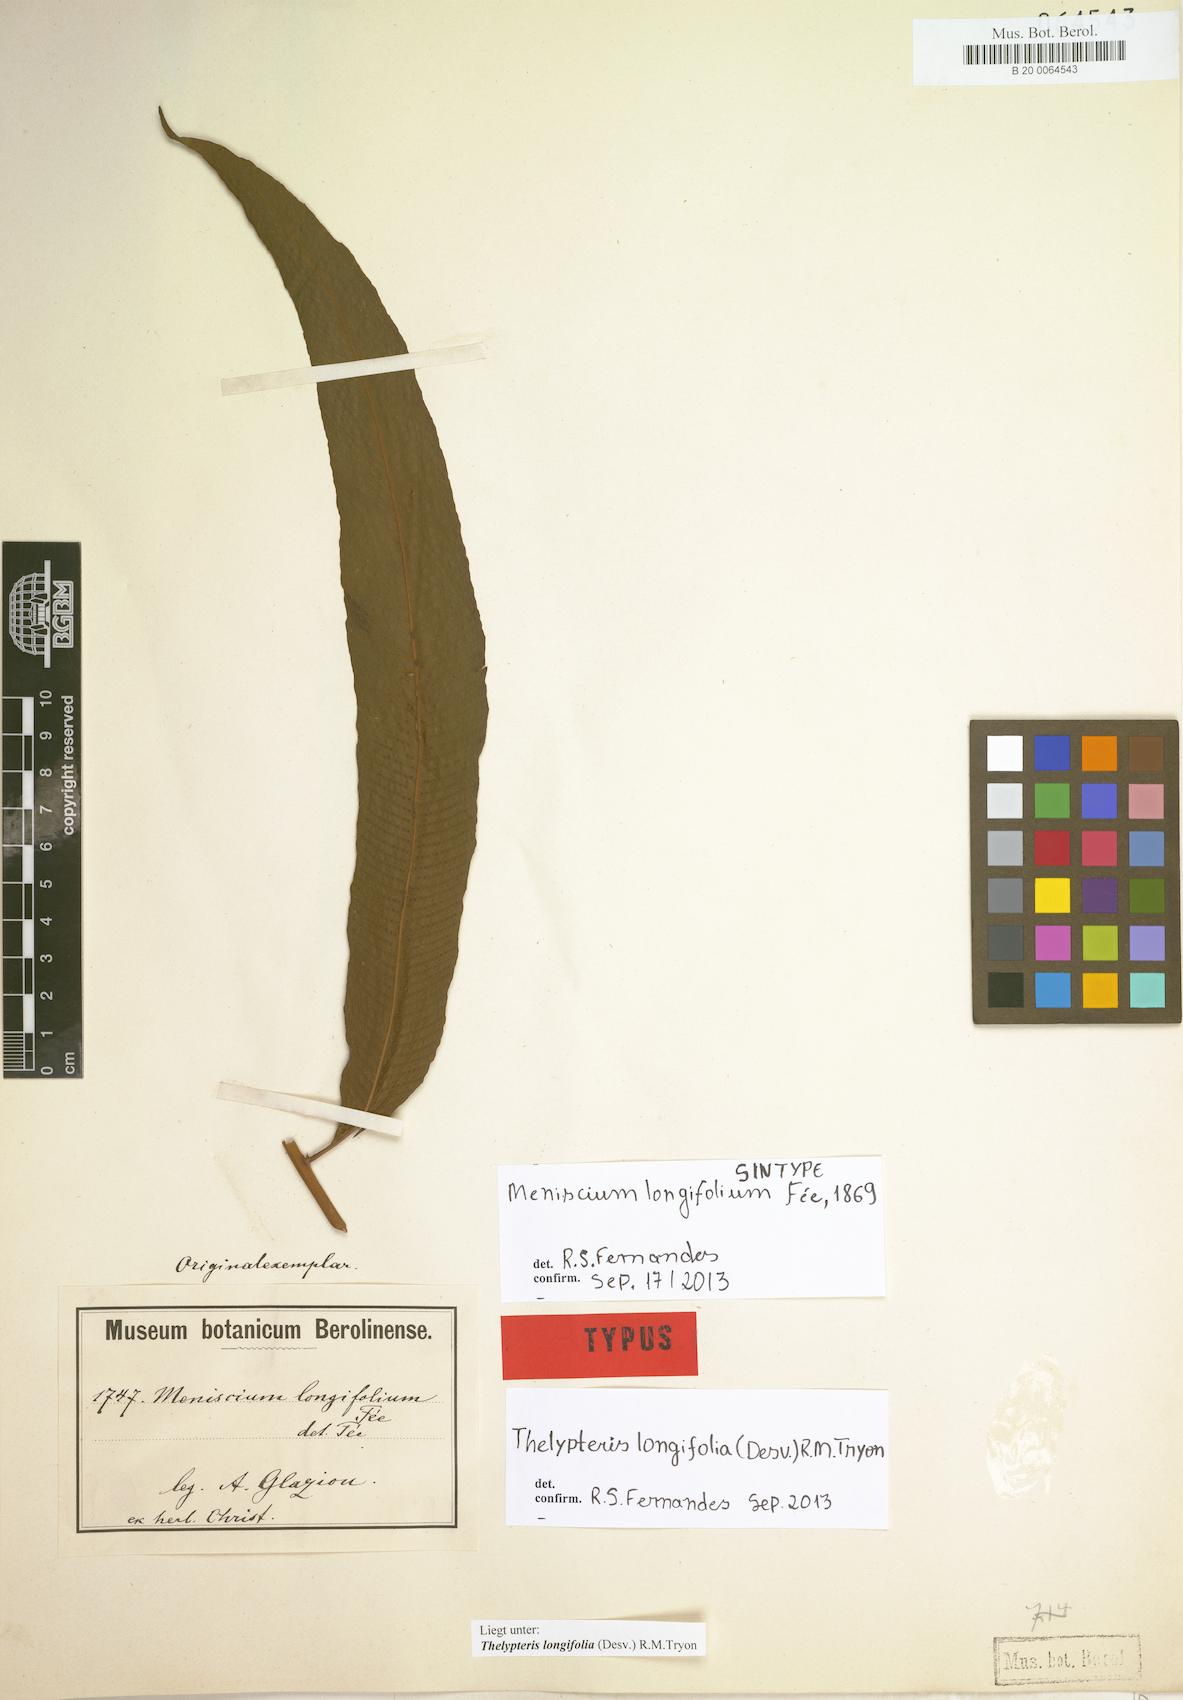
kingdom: Plantae
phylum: Tracheophyta
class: Polypodiopsida
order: Polypodiales
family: Thelypteridaceae
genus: Meniscium
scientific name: Meniscium longifolium
